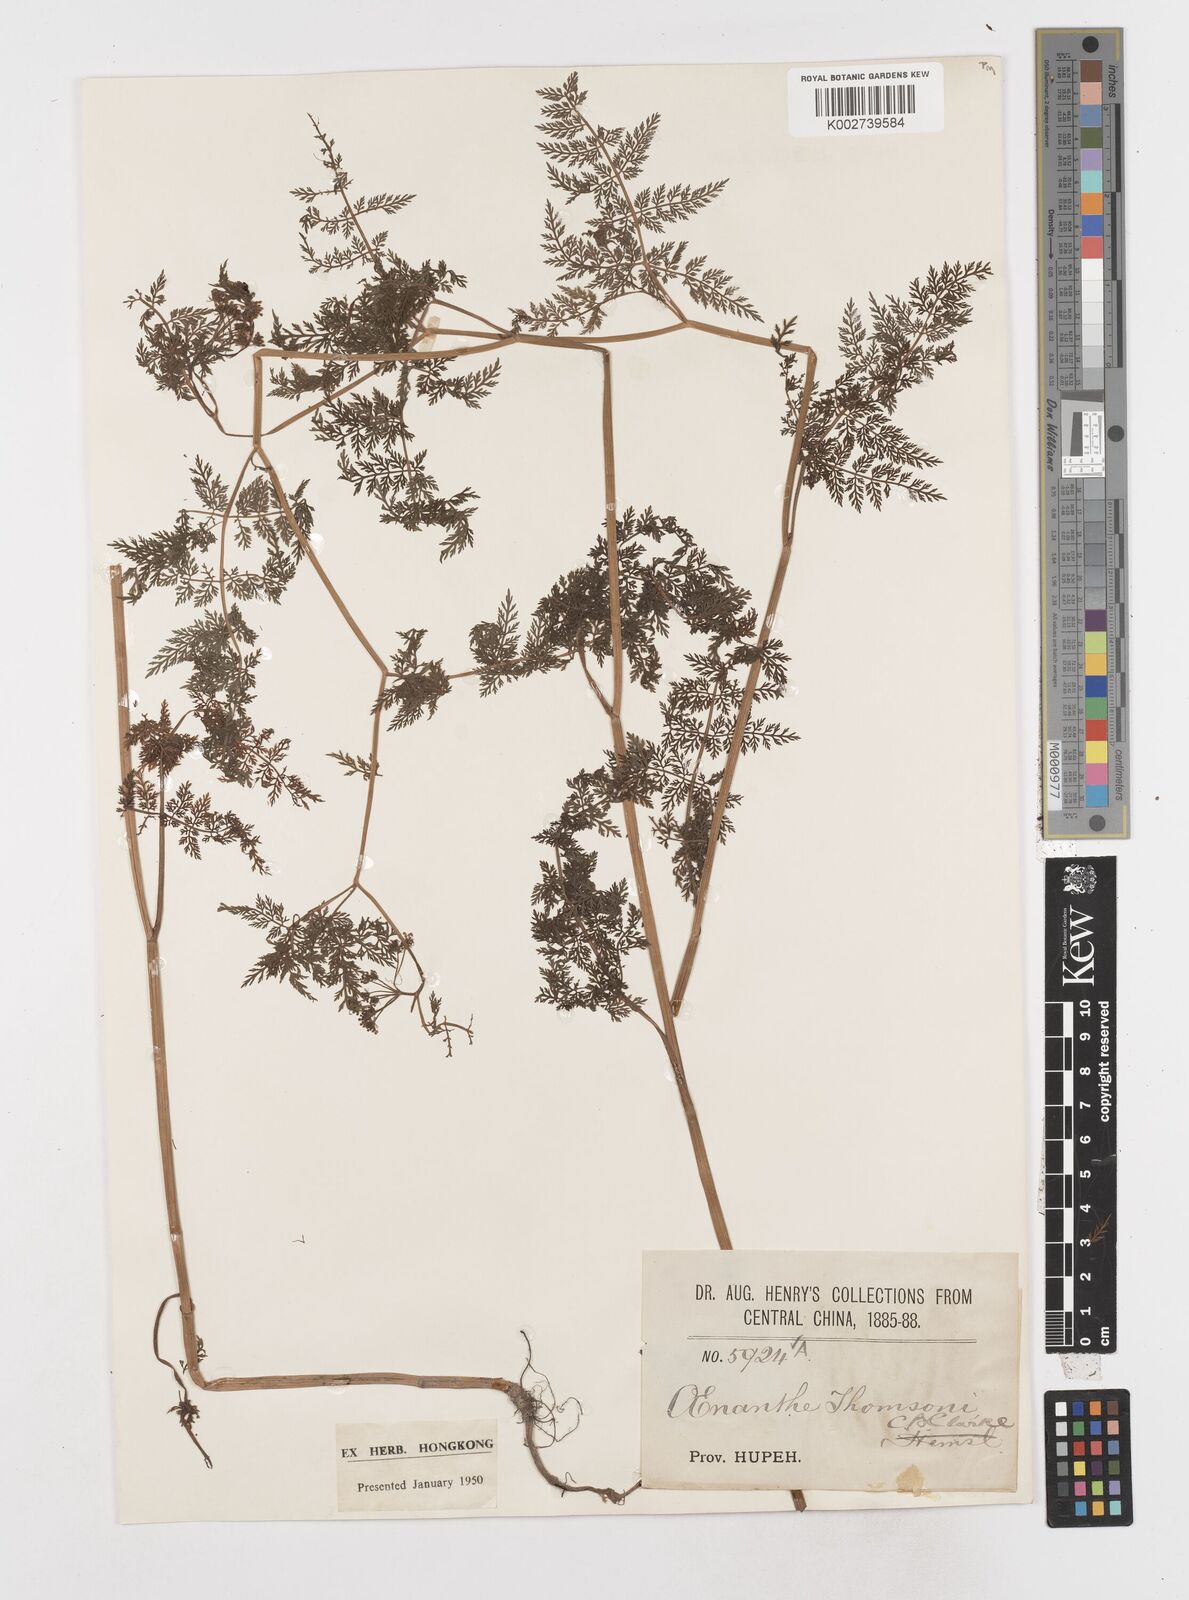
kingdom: Plantae
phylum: Tracheophyta
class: Magnoliopsida
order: Apiales
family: Apiaceae
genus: Oenanthe
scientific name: Oenanthe thomsonii
